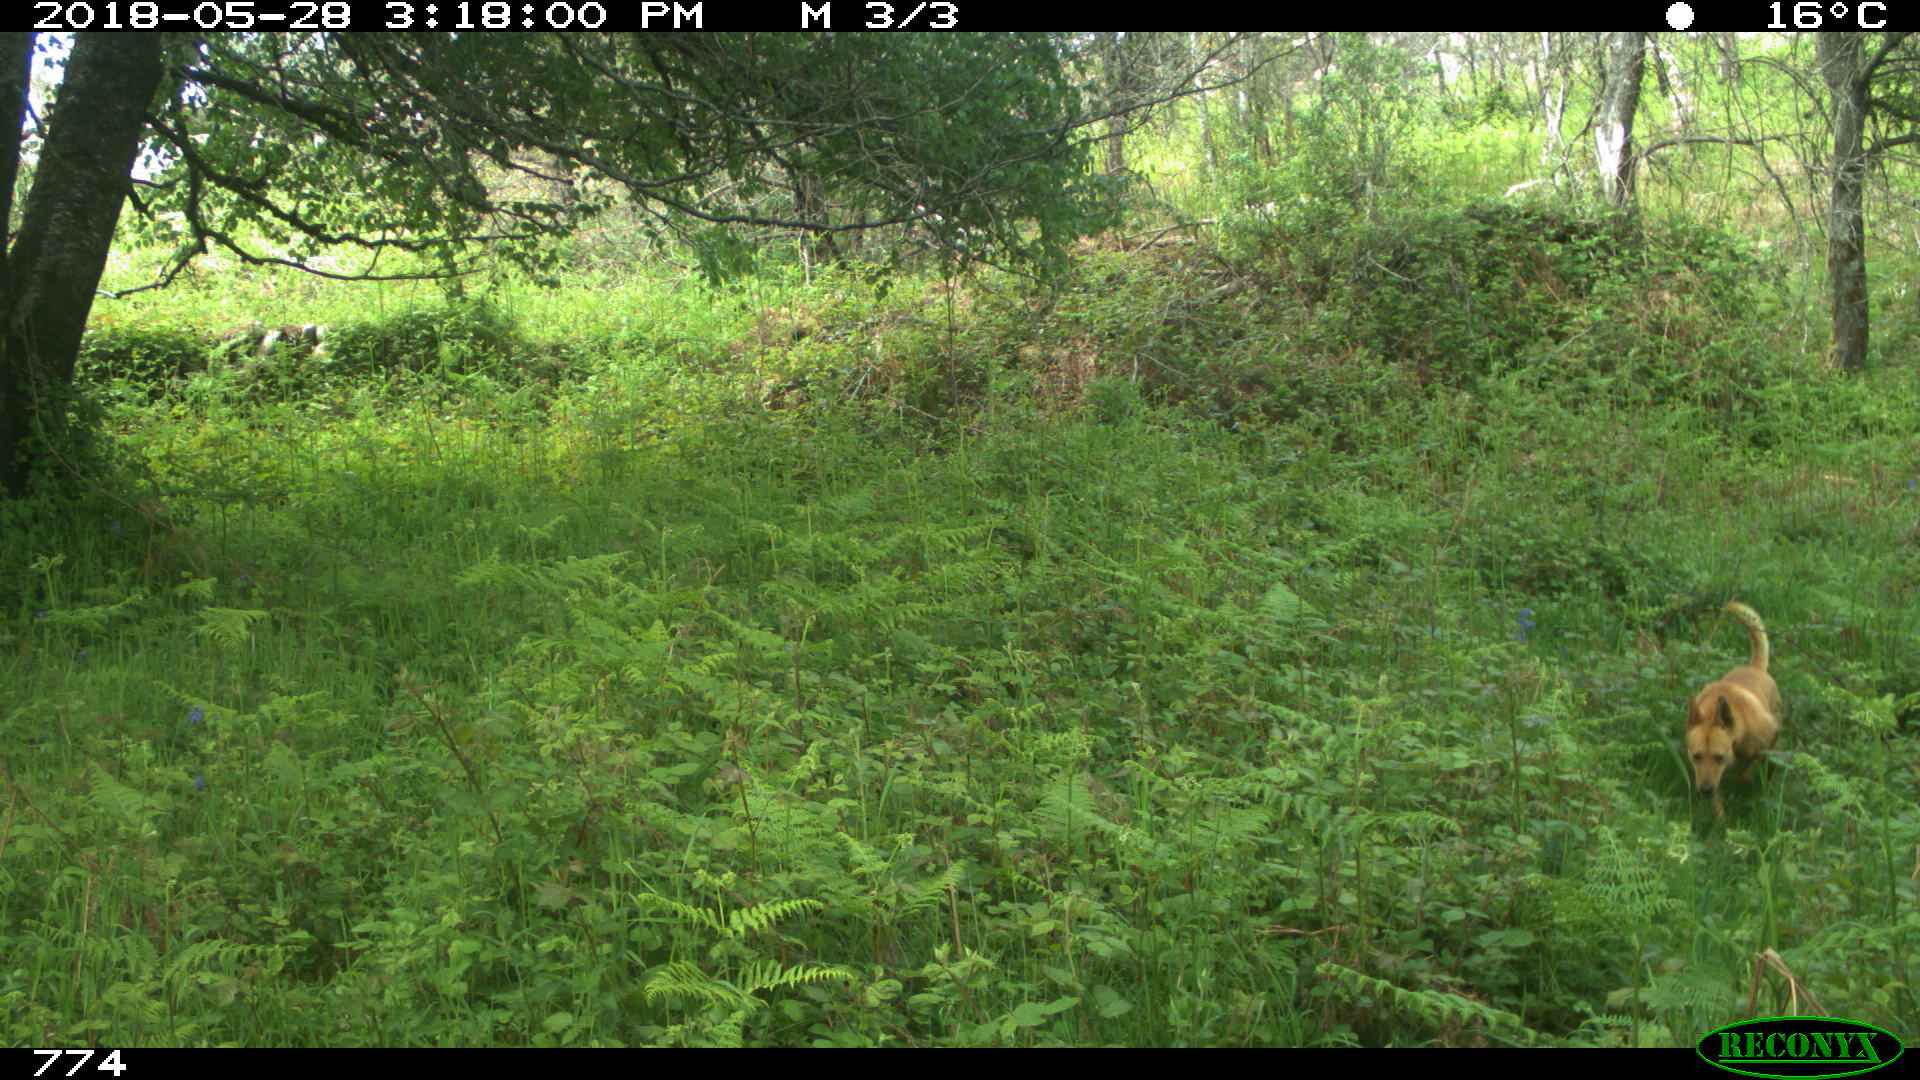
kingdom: Animalia
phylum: Chordata
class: Mammalia
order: Carnivora
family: Canidae
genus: Canis
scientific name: Canis lupus
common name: Gray wolf
